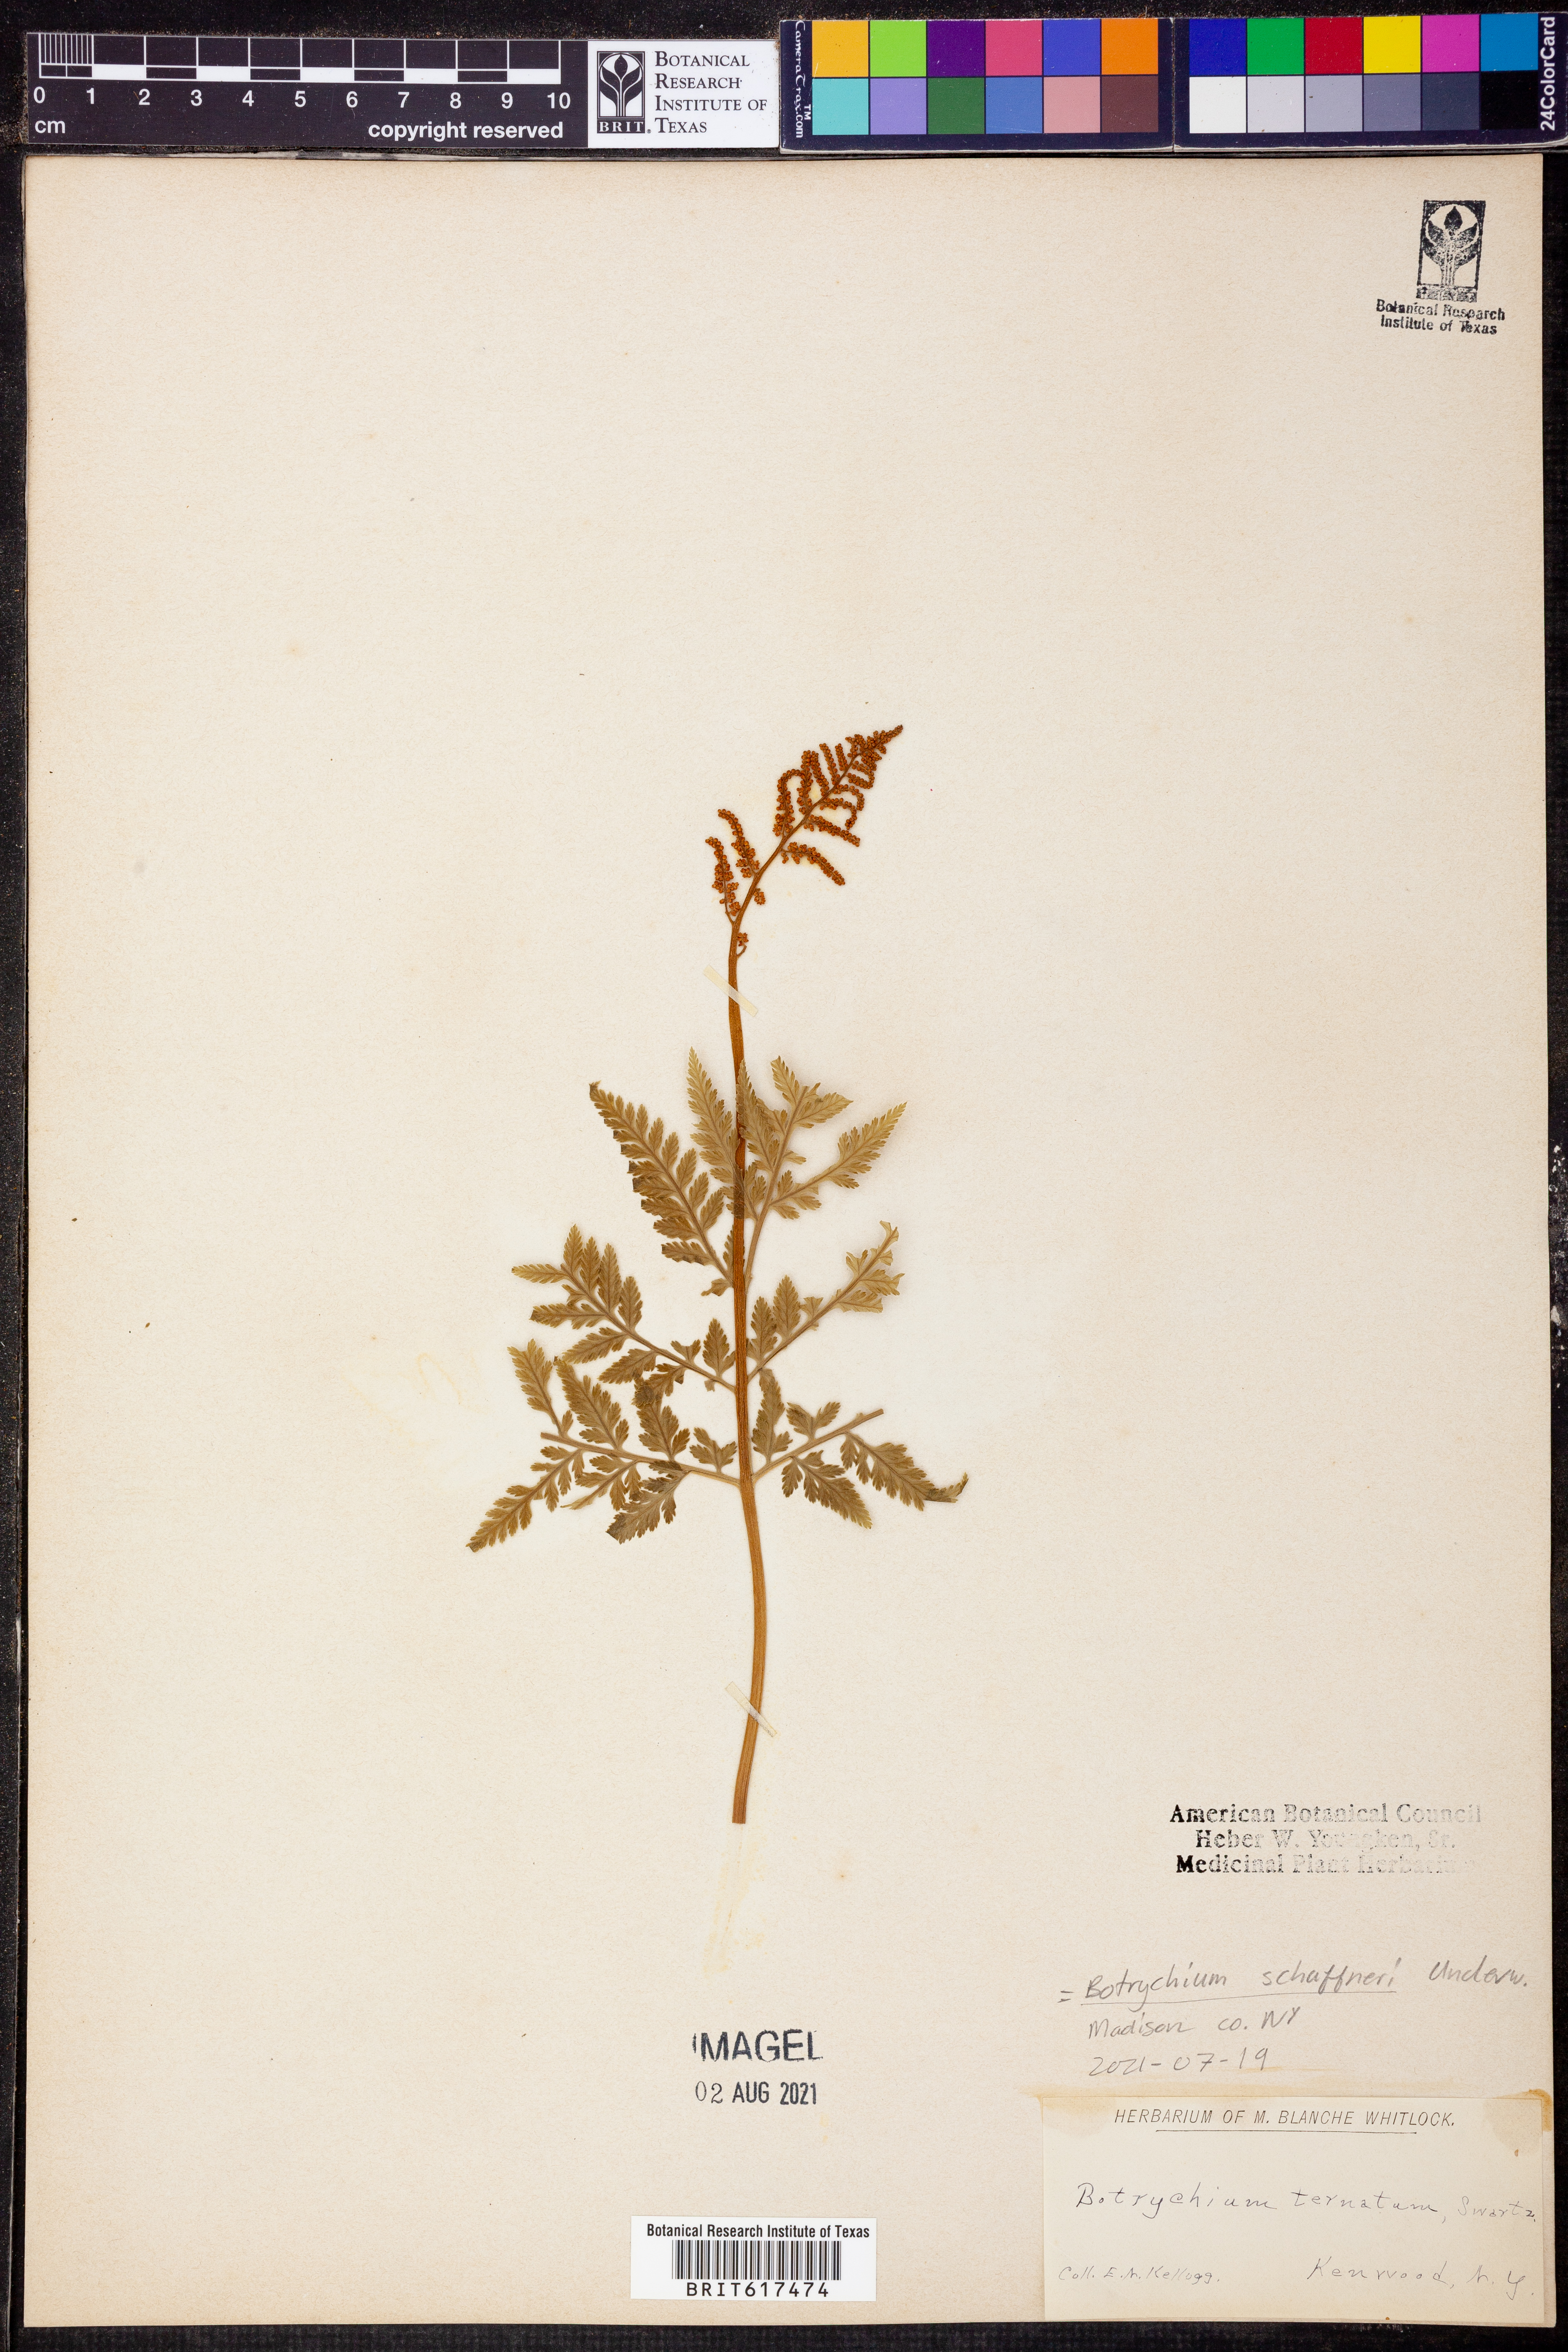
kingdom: Plantae
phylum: Tracheophyta
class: Polypodiopsida
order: Ophioglossales
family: Ophioglossaceae
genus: Sceptridium
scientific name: Sceptridium schaffneri
